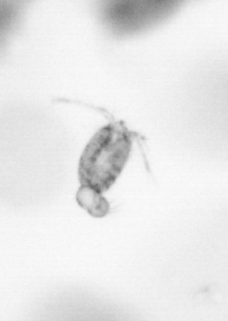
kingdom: Animalia
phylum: Arthropoda
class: Copepoda
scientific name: Copepoda
